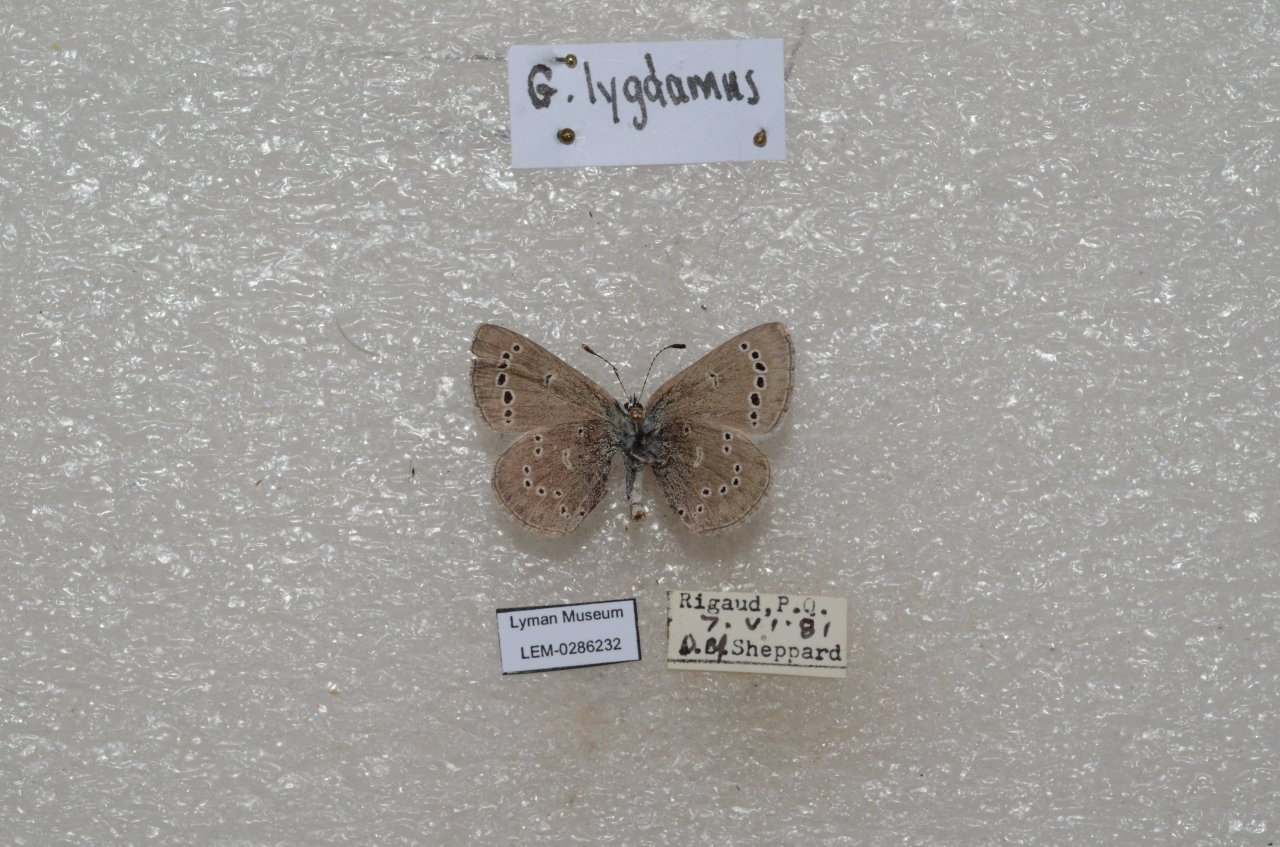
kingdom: Animalia
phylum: Arthropoda
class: Insecta
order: Lepidoptera
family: Lycaenidae
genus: Glaucopsyche
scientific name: Glaucopsyche lygdamus
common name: Silvery Blue
